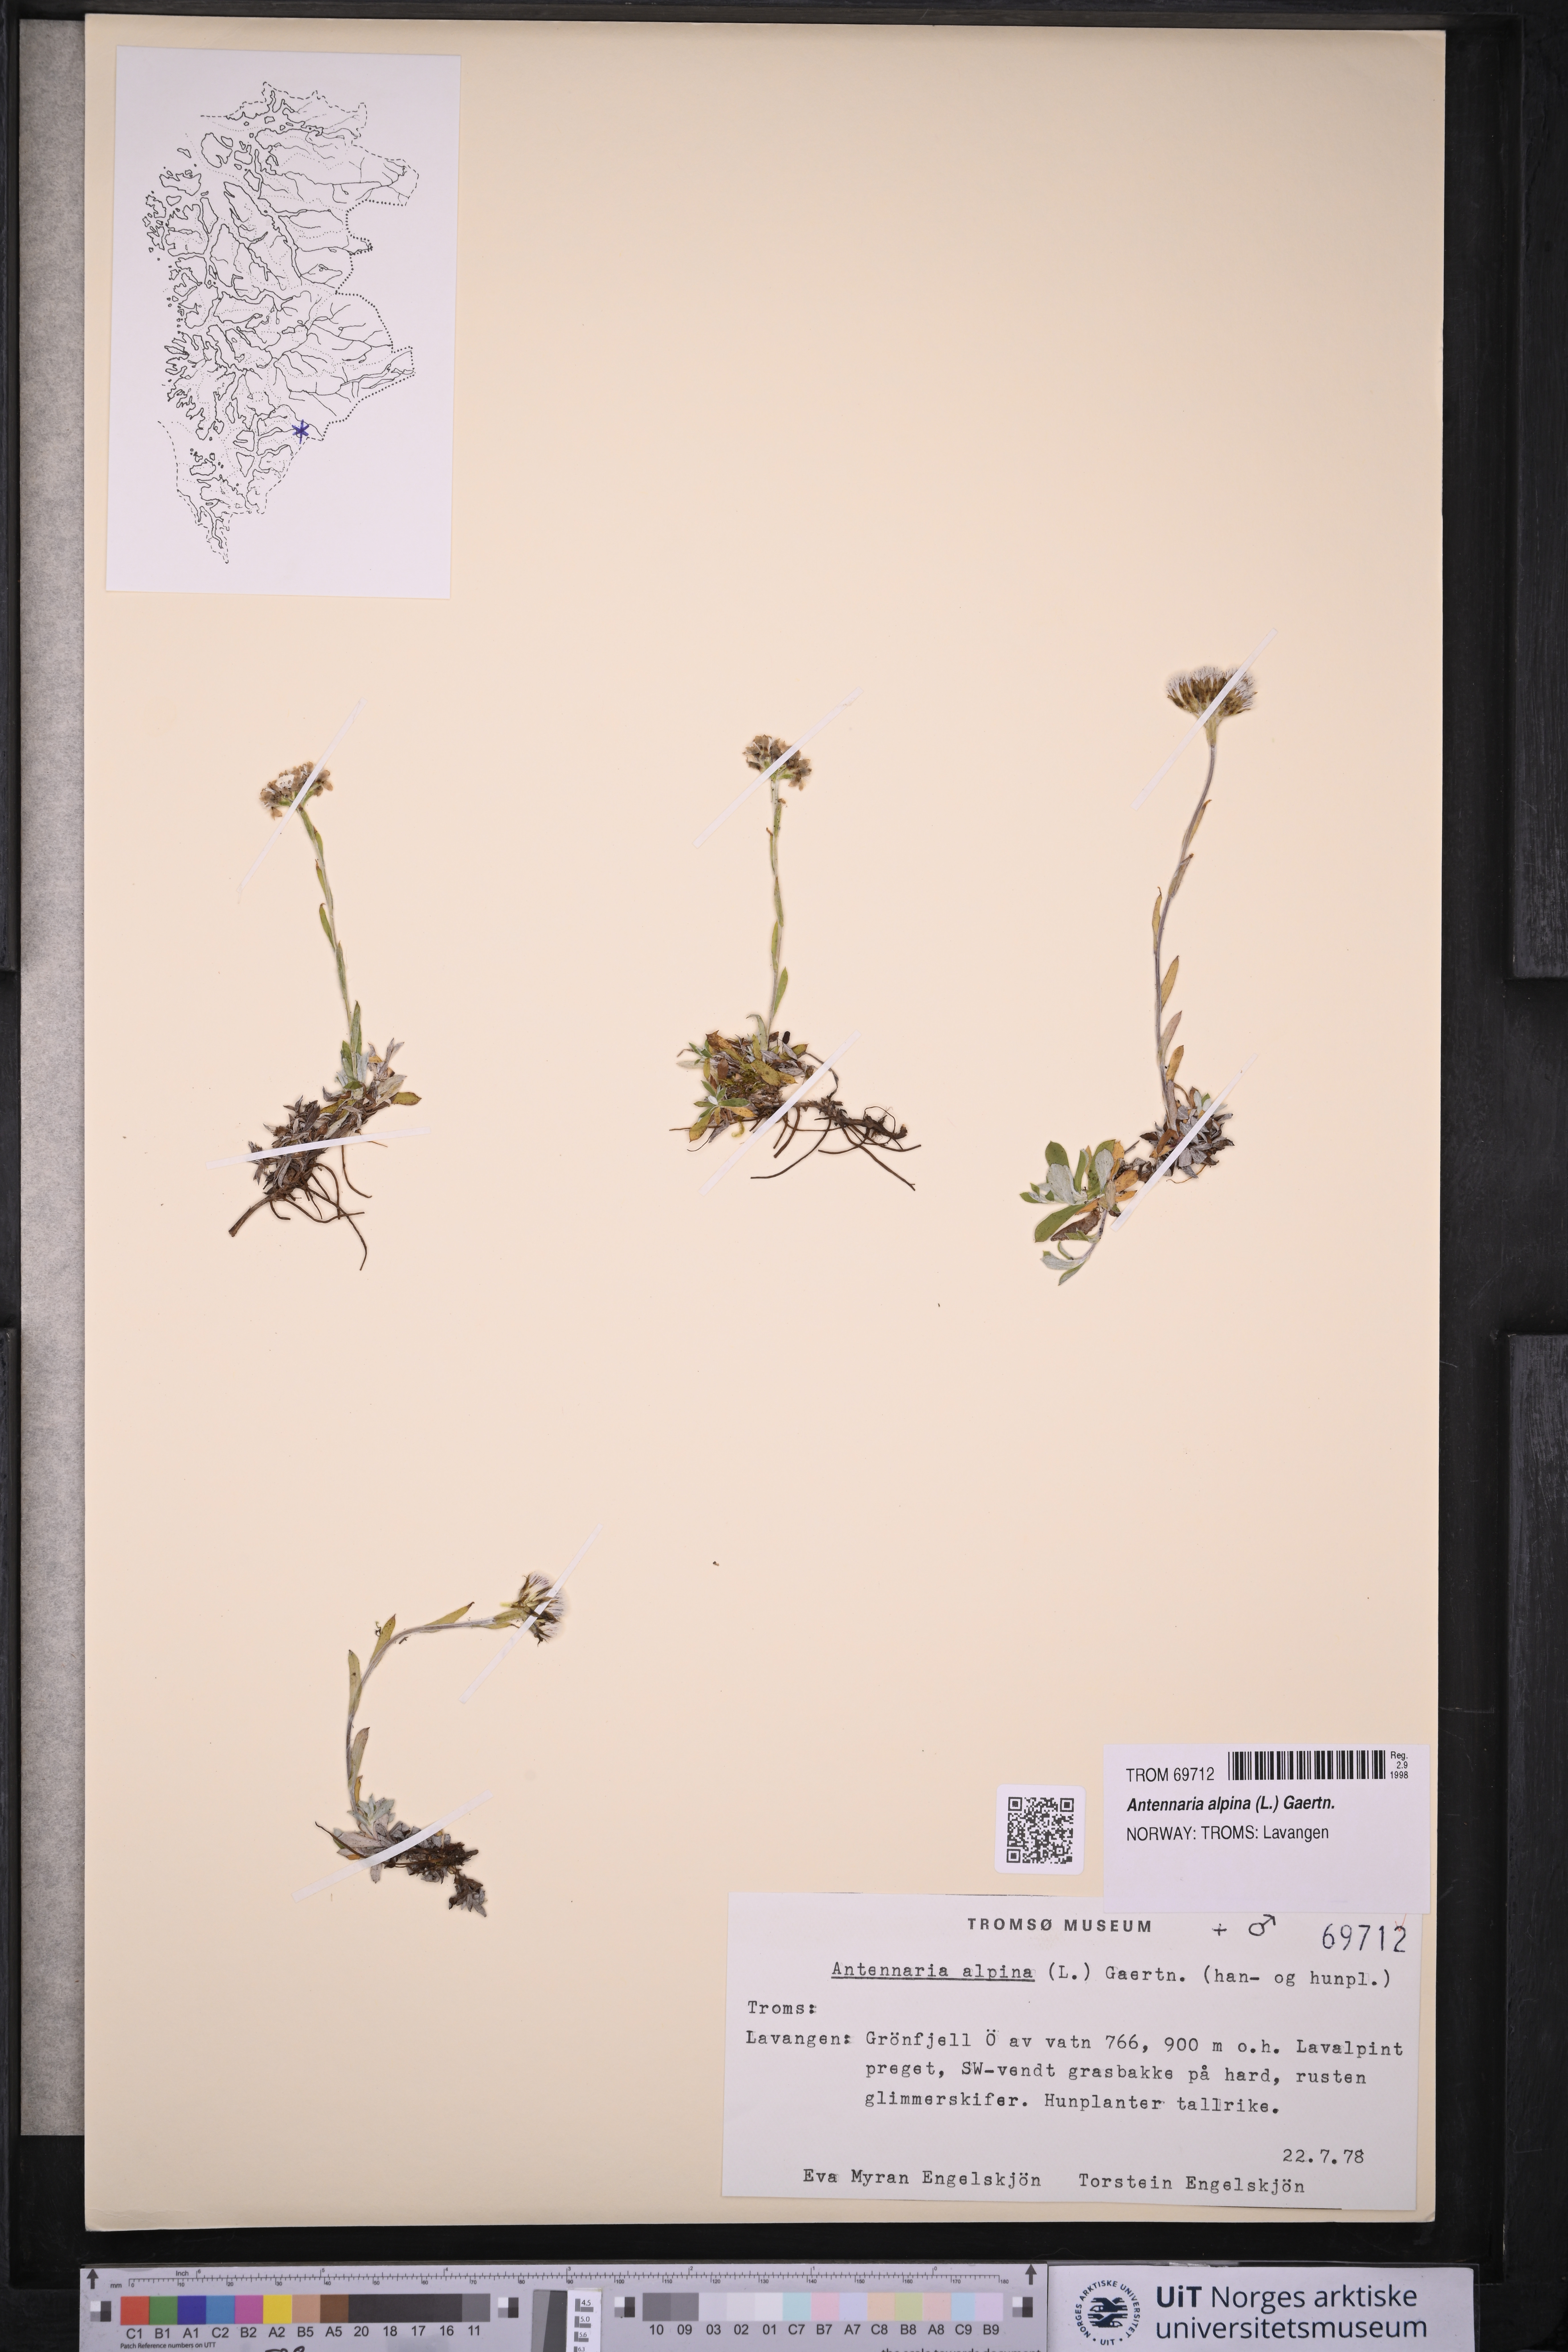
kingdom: Plantae
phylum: Tracheophyta
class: Magnoliopsida
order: Asterales
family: Asteraceae
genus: Antennaria
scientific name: Antennaria alpina
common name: Alpine pussytoes
